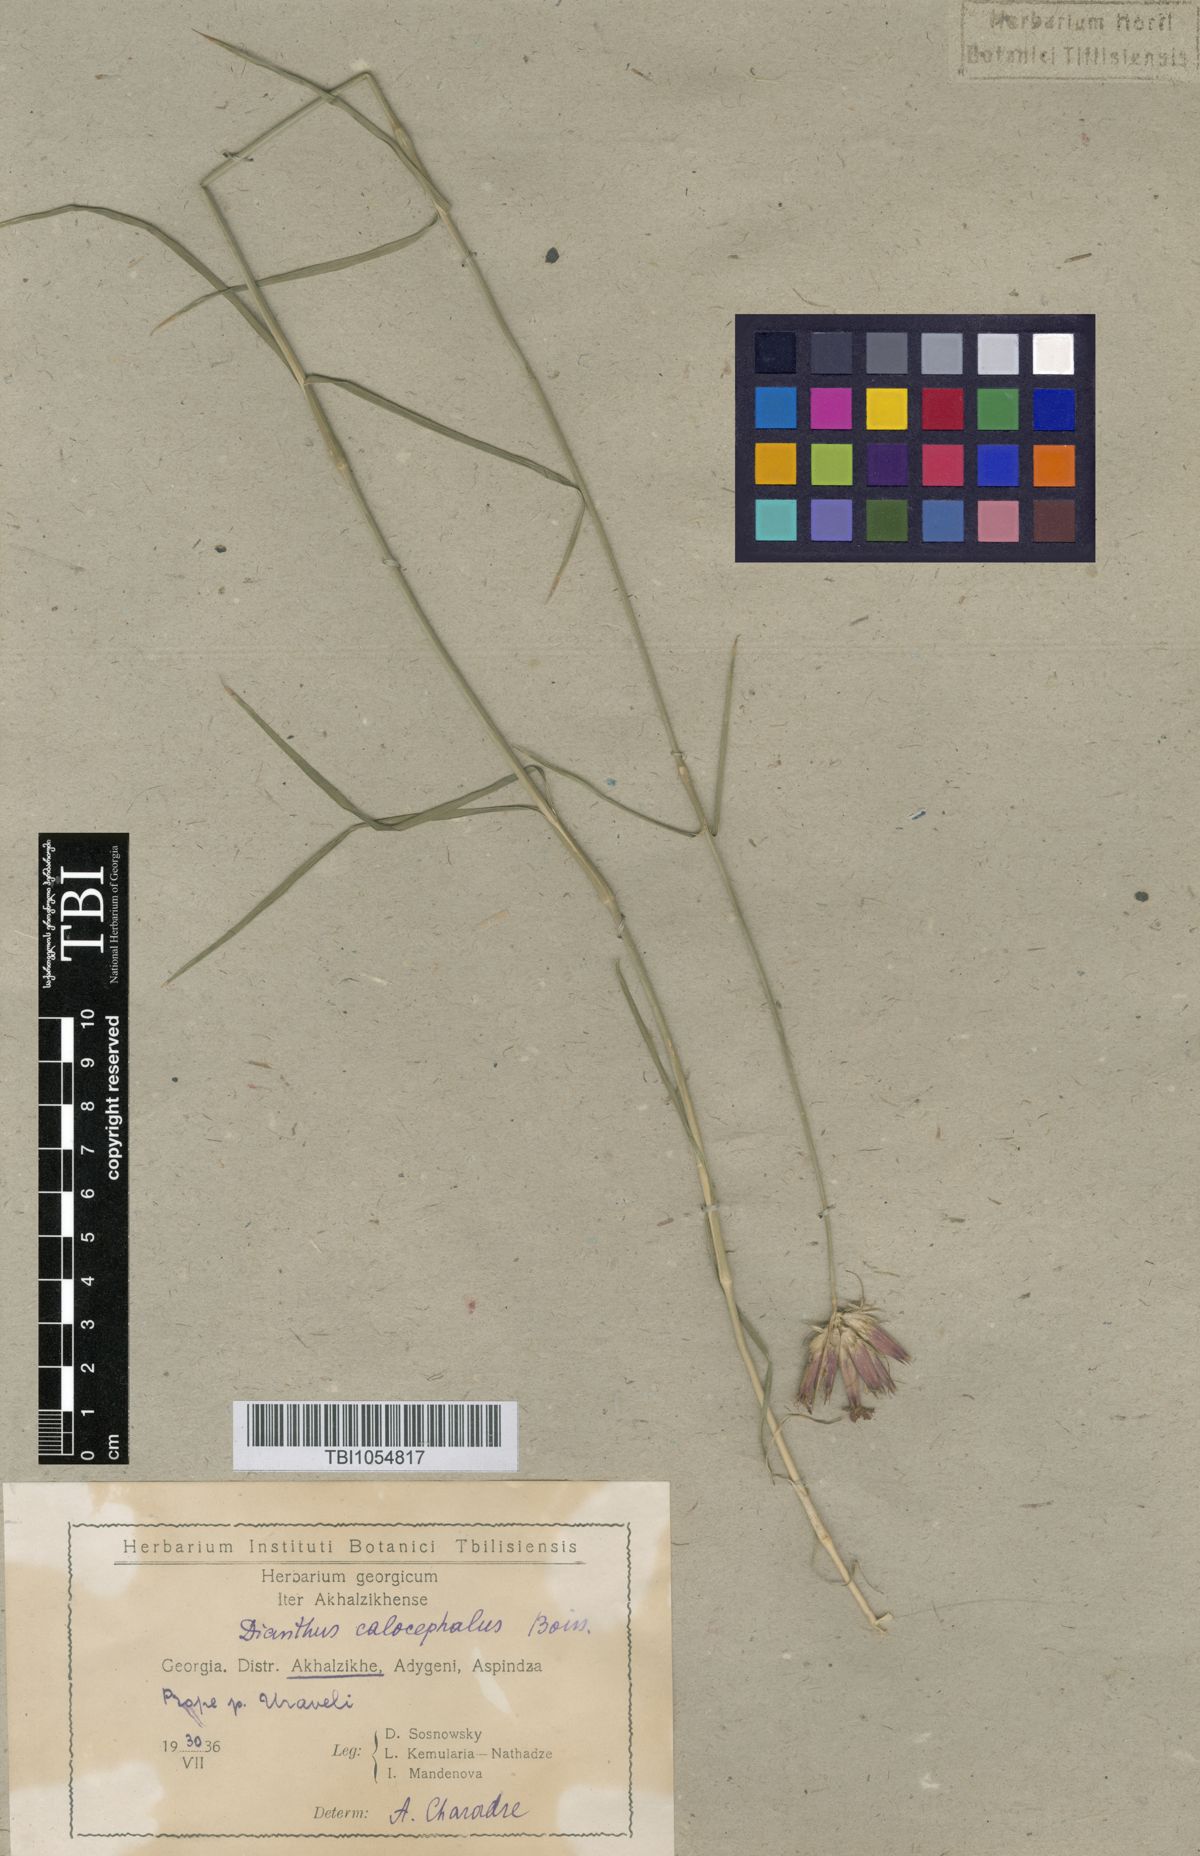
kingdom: Plantae
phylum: Tracheophyta
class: Magnoliopsida
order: Caryophyllales
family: Caryophyllaceae
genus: Dianthus
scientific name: Dianthus cruentus
